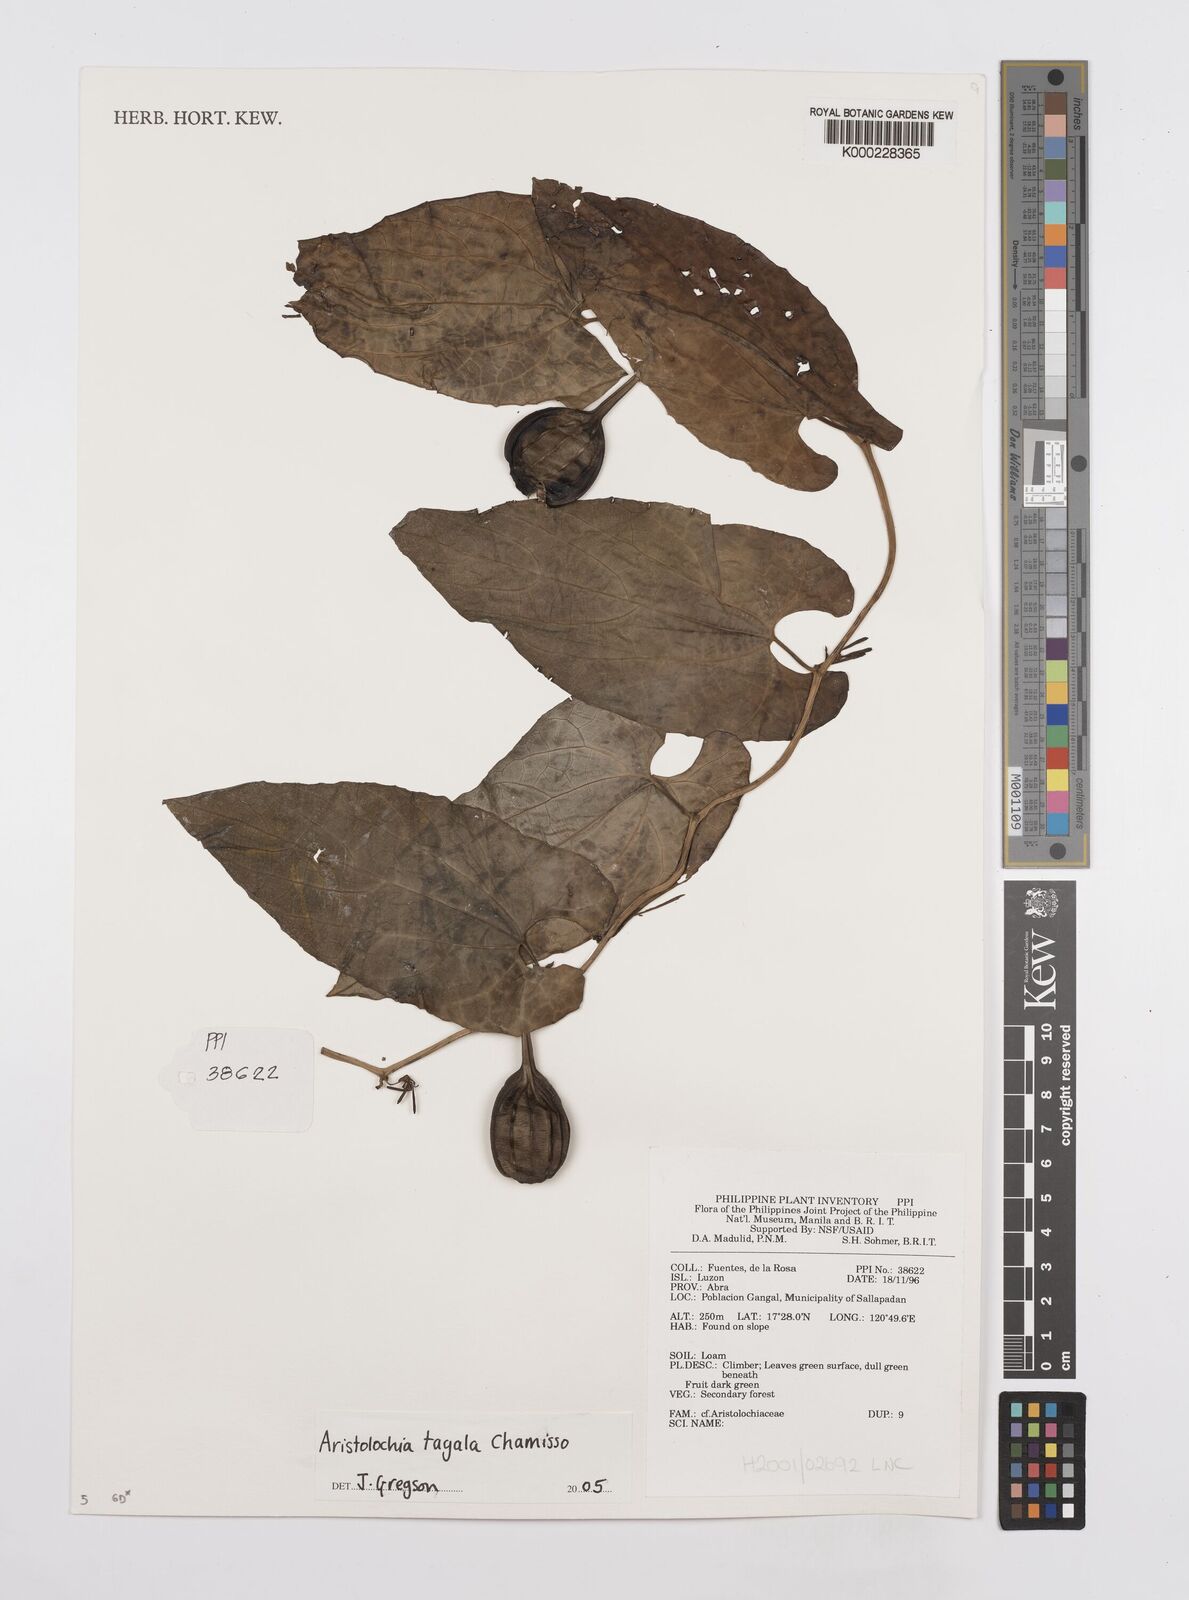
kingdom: Plantae
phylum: Tracheophyta
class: Magnoliopsida
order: Piperales
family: Aristolochiaceae
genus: Aristolochia
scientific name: Aristolochia acuminata
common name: Indian birthwort
